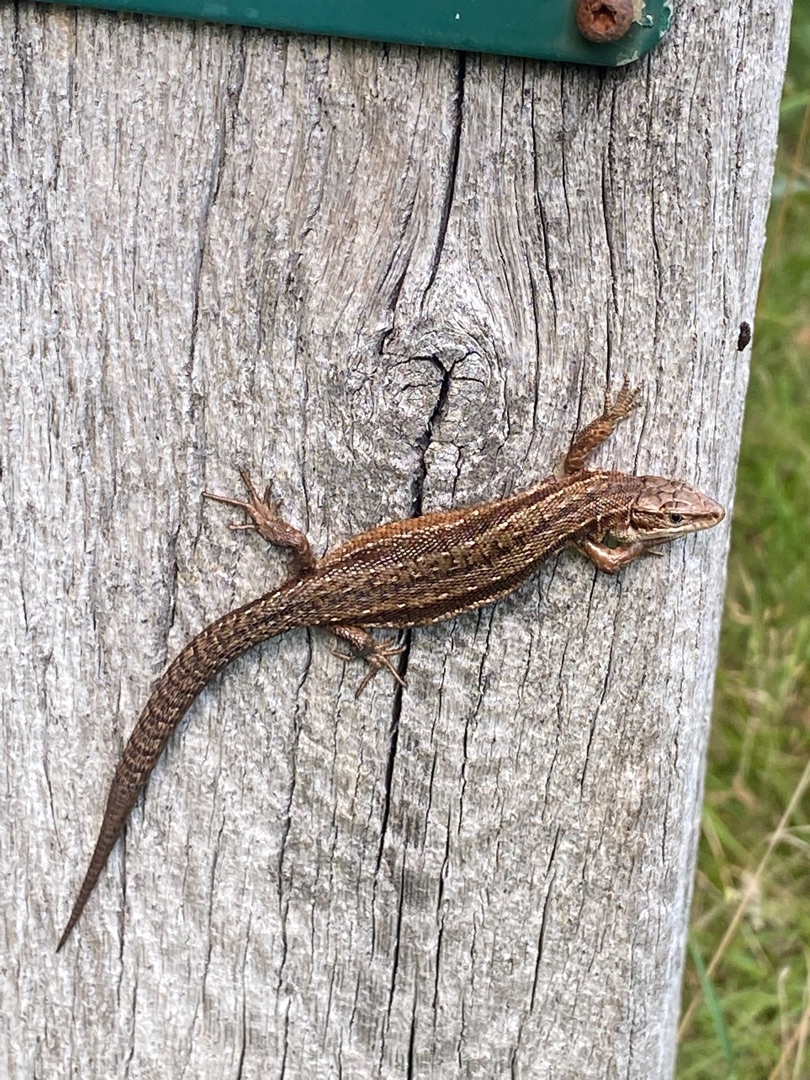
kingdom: Animalia
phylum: Chordata
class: Squamata
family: Lacertidae
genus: Zootoca
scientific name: Zootoca vivipara
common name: Skovfirben
